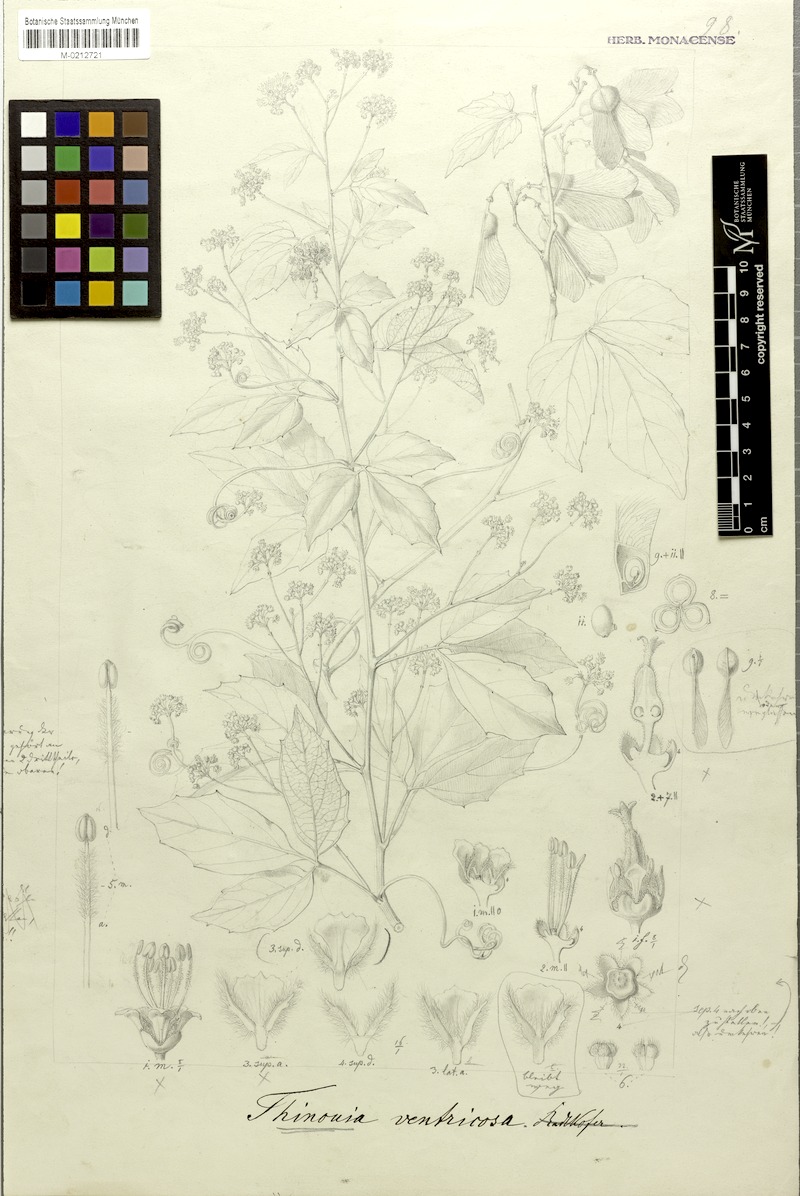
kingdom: Plantae
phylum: Tracheophyta
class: Magnoliopsida
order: Sapindales
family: Sapindaceae
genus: Thinouia
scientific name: Thinouia ventricosa
